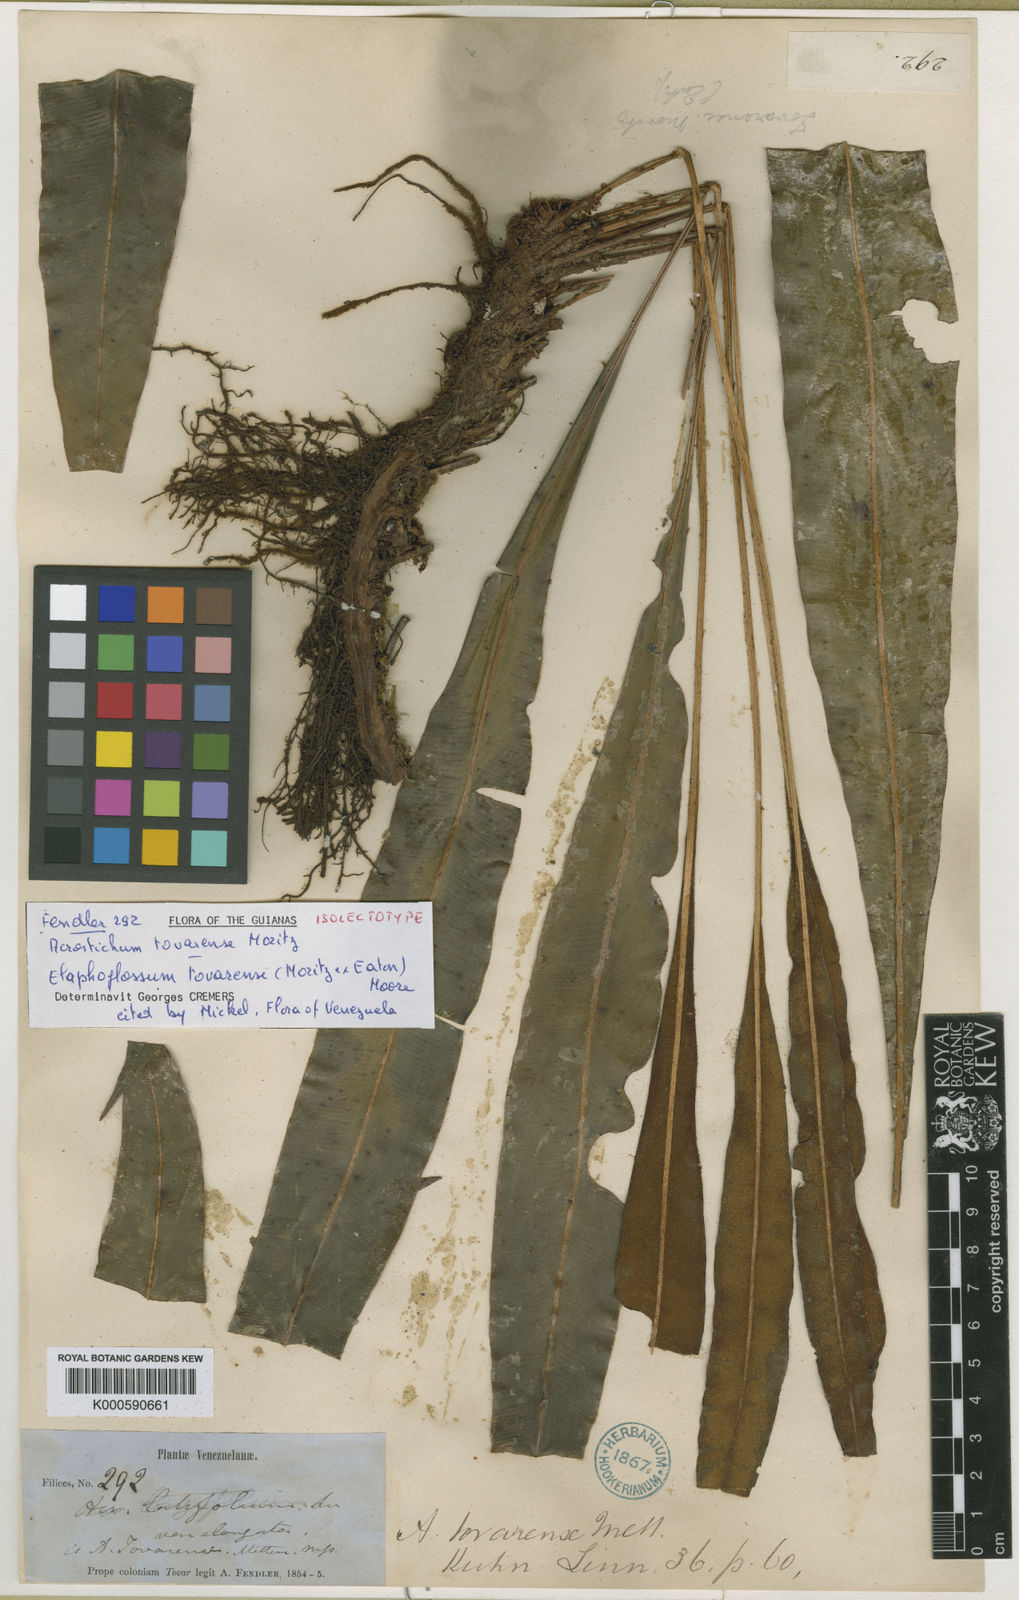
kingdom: Plantae
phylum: Tracheophyta
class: Polypodiopsida
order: Polypodiales
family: Dryopteridaceae
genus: Elaphoglossum
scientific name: Elaphoglossum tovarense
